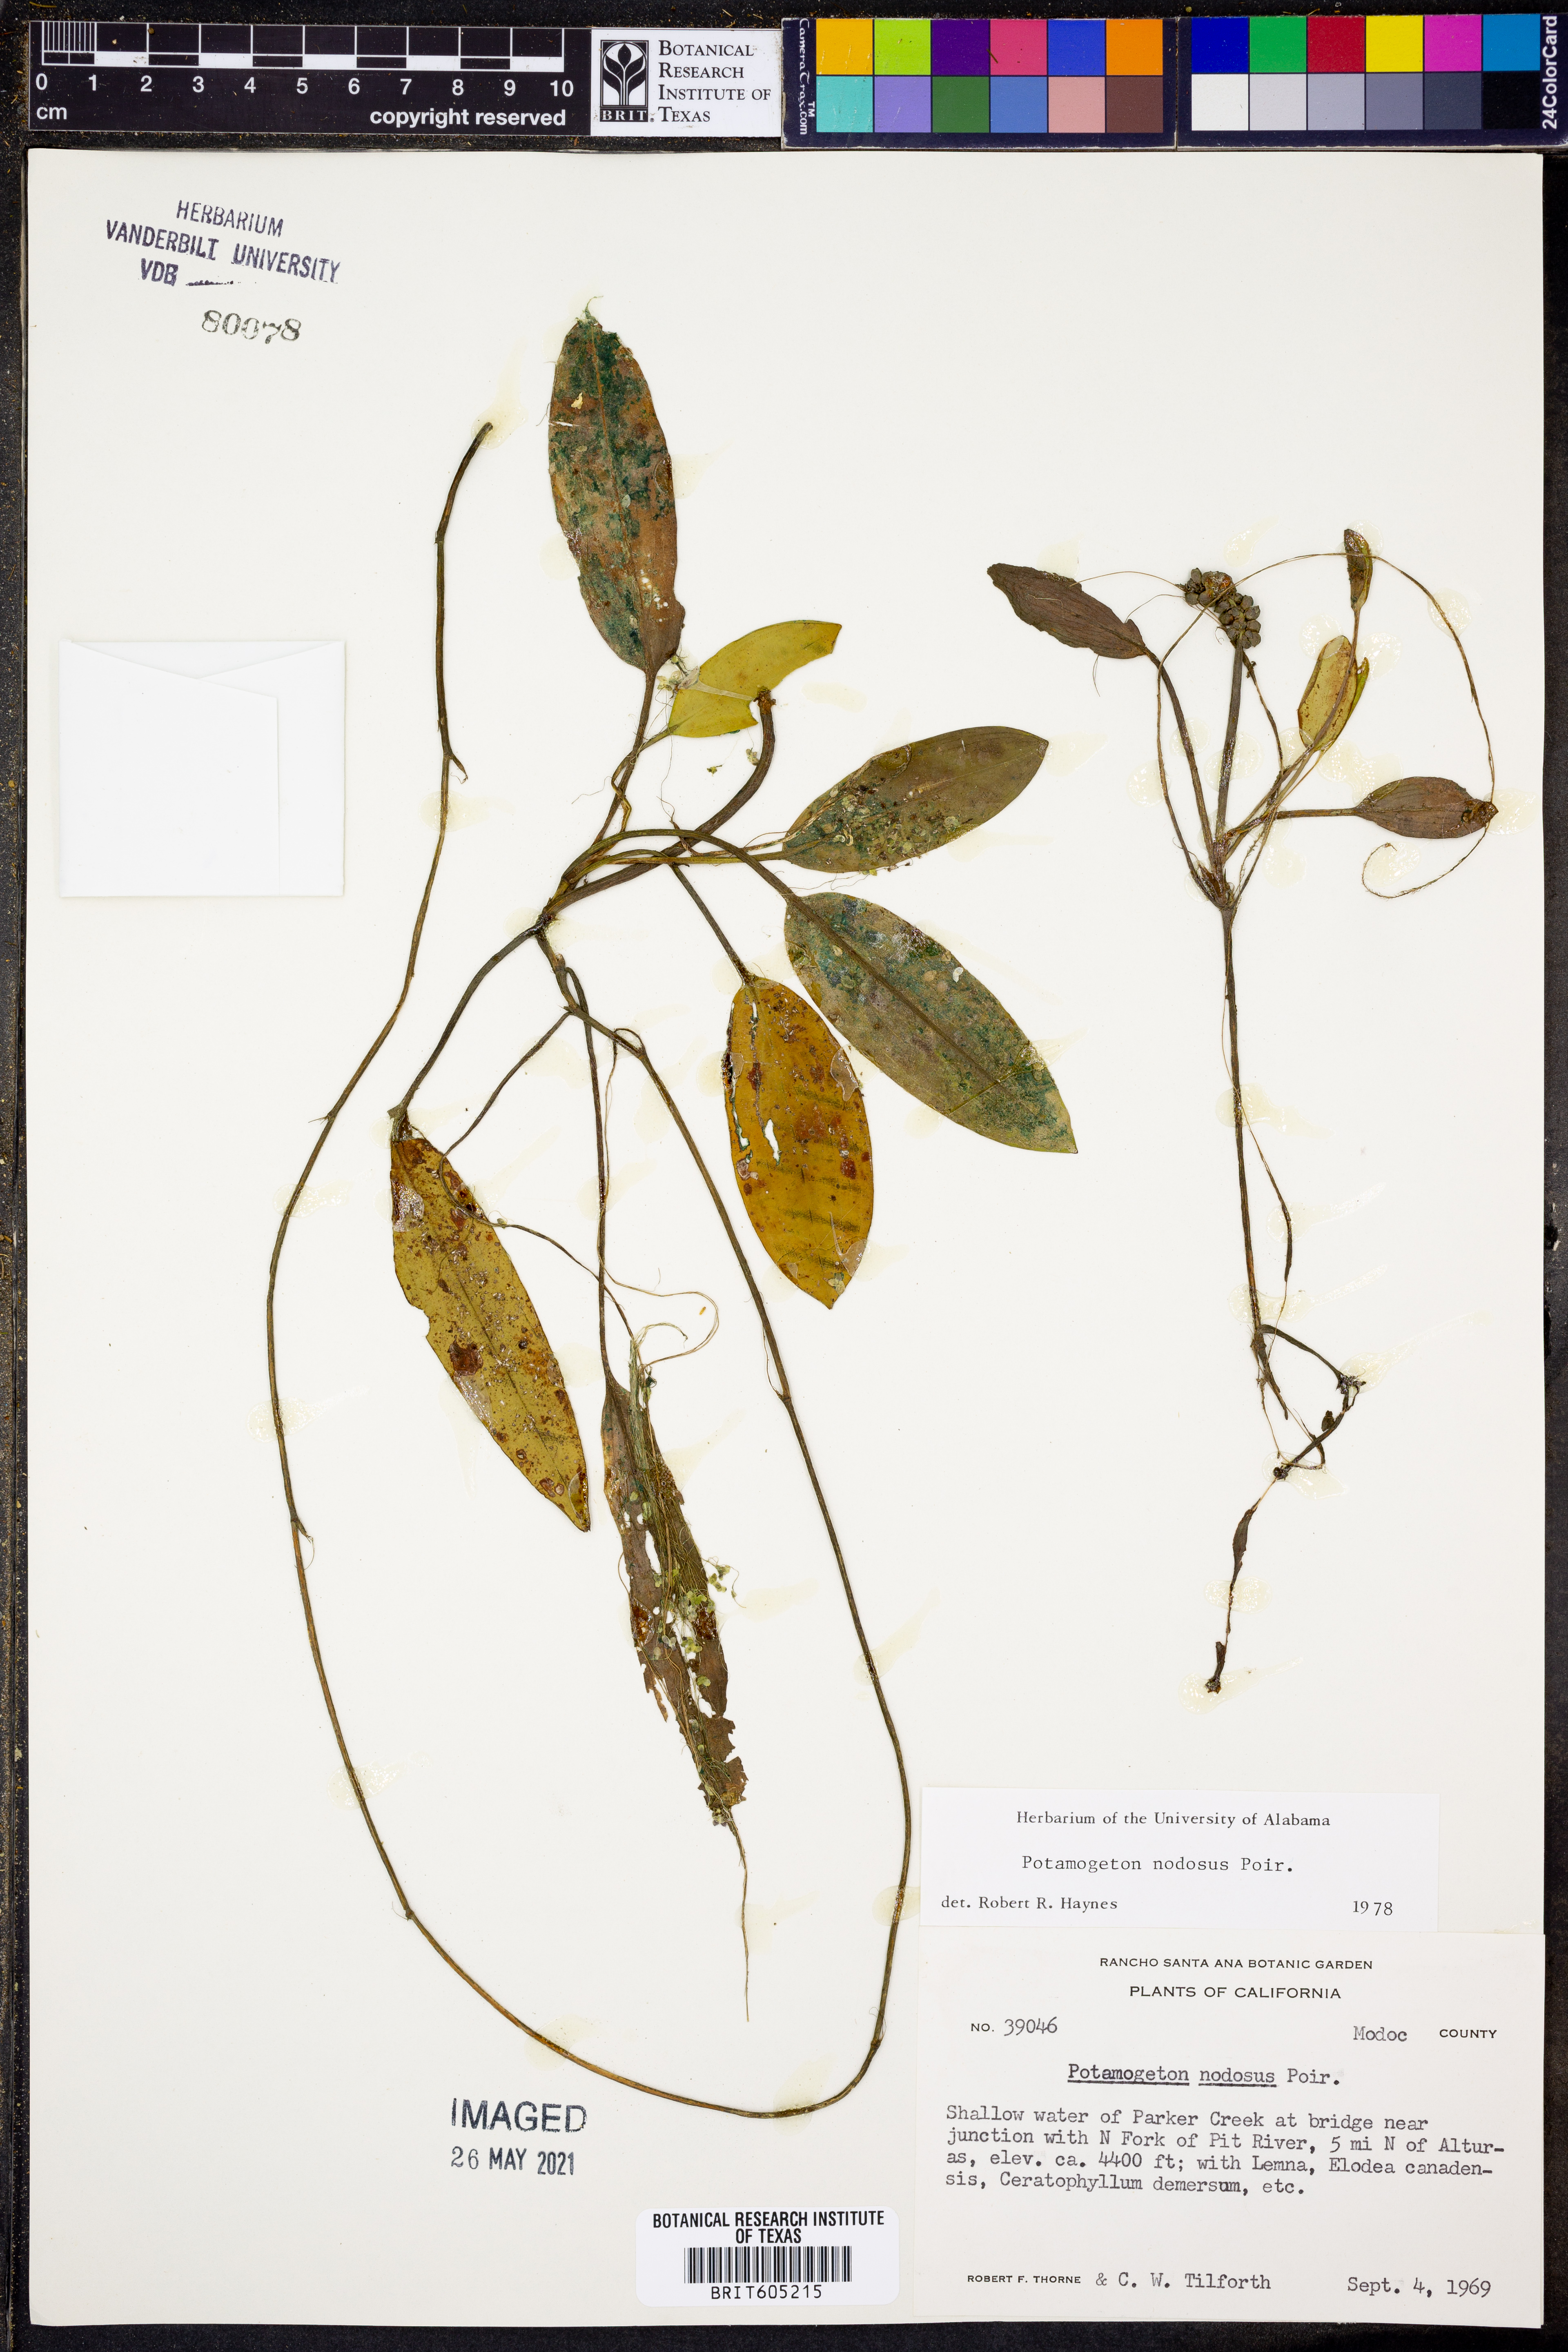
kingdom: Plantae
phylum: Tracheophyta
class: Liliopsida
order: Alismatales
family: Potamogetonaceae
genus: Potamogeton
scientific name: Potamogeton nodosus
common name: Loddon pondweed
